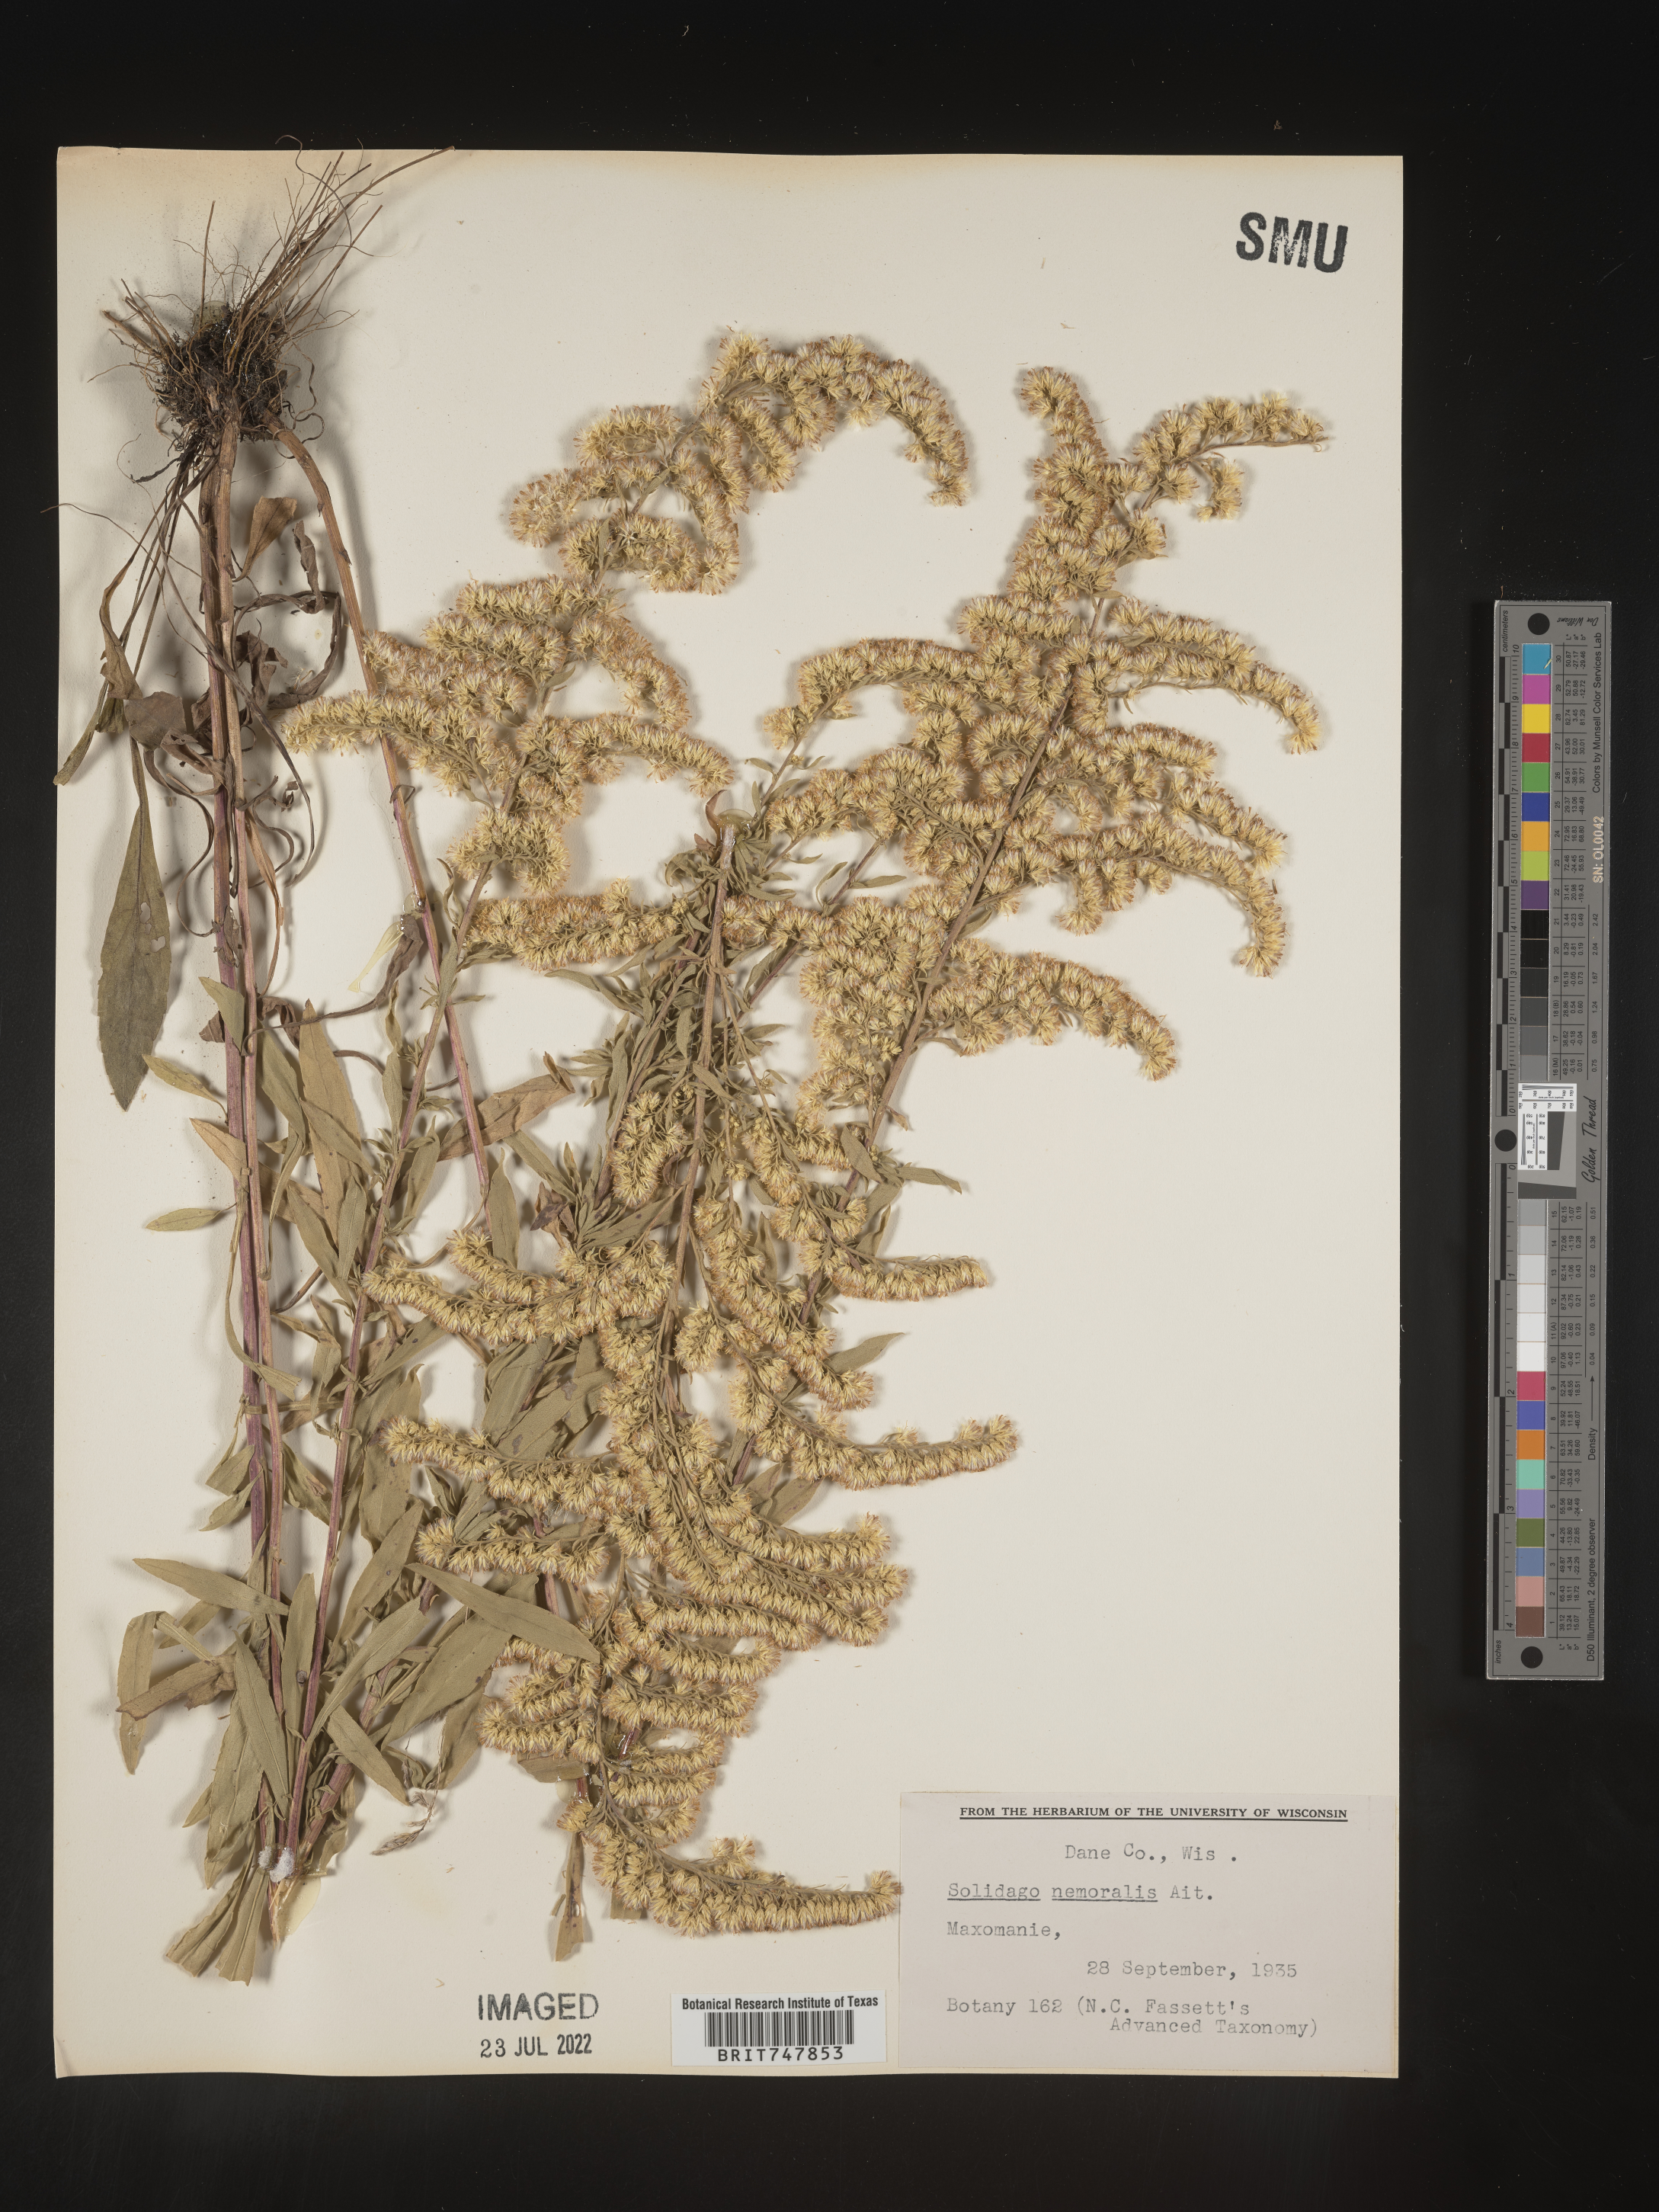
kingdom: Plantae
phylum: Tracheophyta
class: Magnoliopsida
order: Asterales
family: Asteraceae
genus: Solidago
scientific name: Solidago nemoralis
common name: Grey goldenrod
